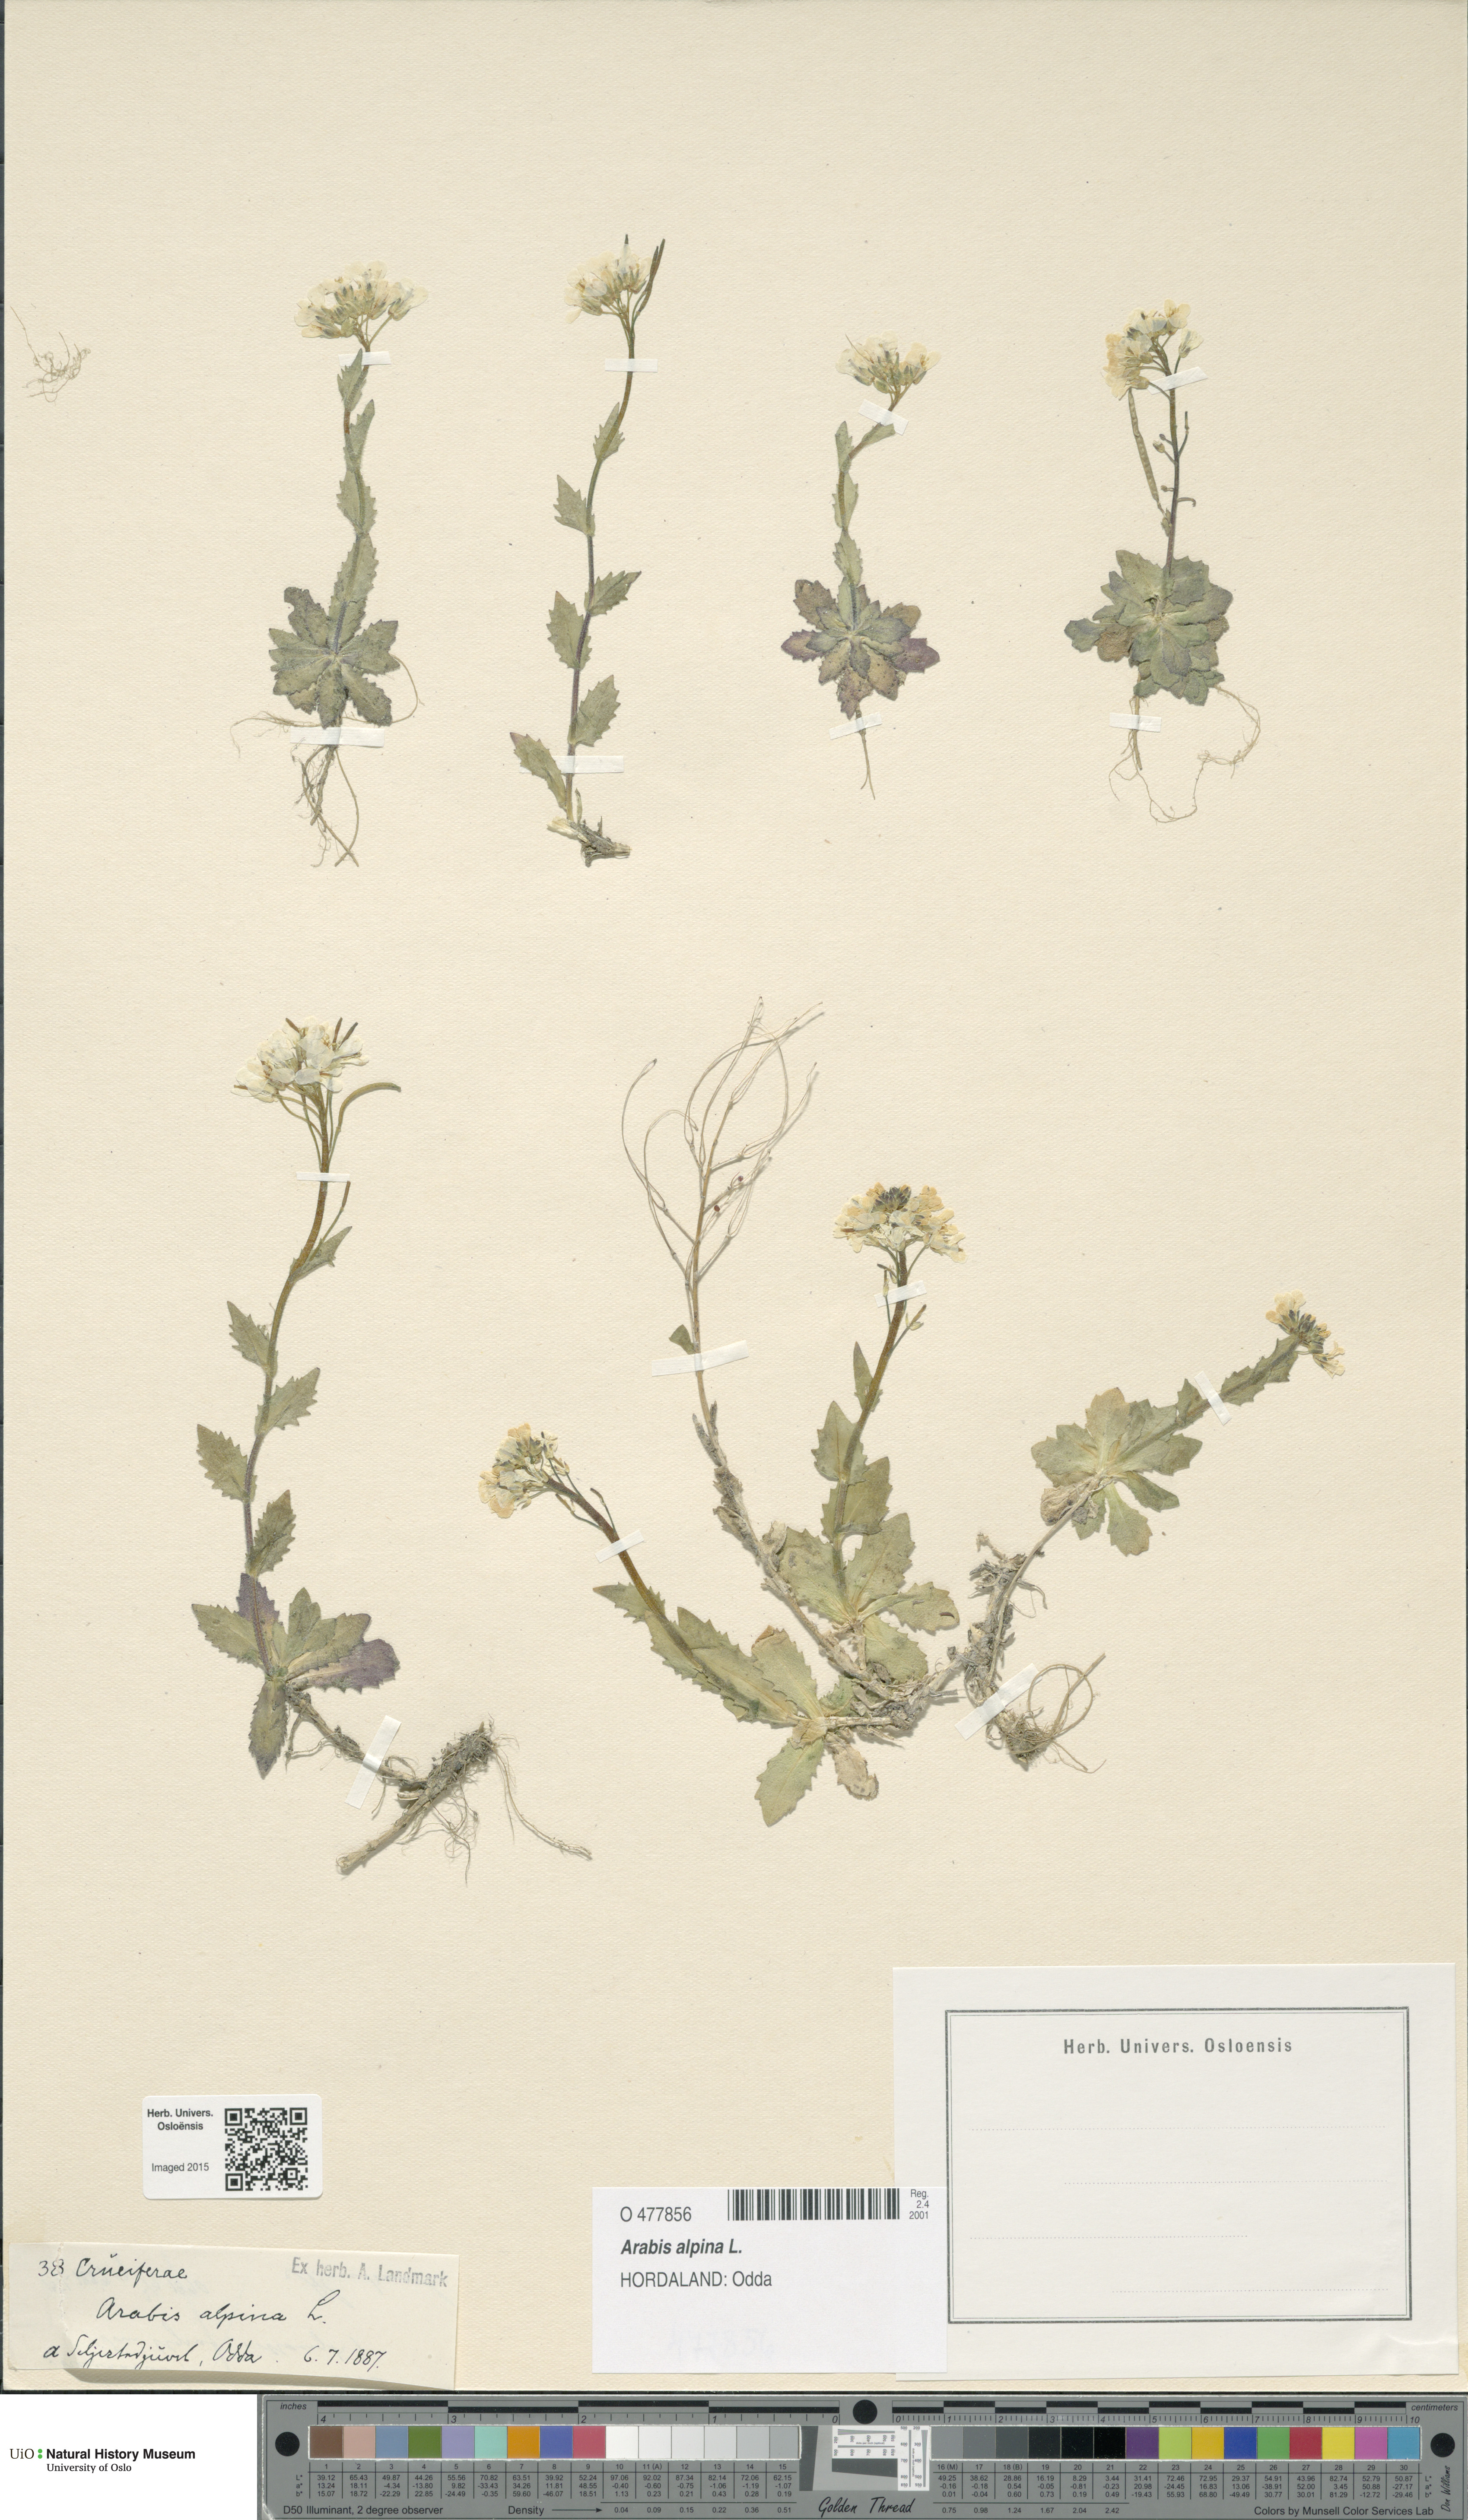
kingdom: Plantae
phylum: Tracheophyta
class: Magnoliopsida
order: Brassicales
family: Brassicaceae
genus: Arabis
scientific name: Arabis alpina
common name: Alpine rock-cress
